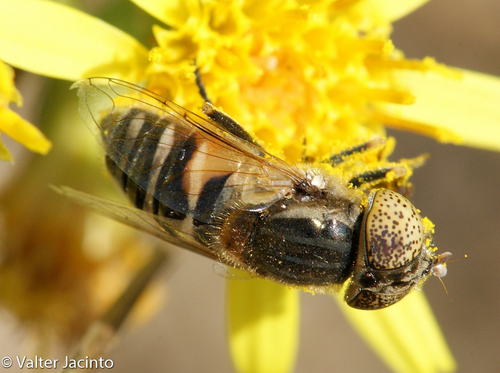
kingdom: Animalia
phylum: Arthropoda
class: Insecta
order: Diptera
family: Syrphidae
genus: Eristalinus
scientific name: Eristalinus megacephalus
